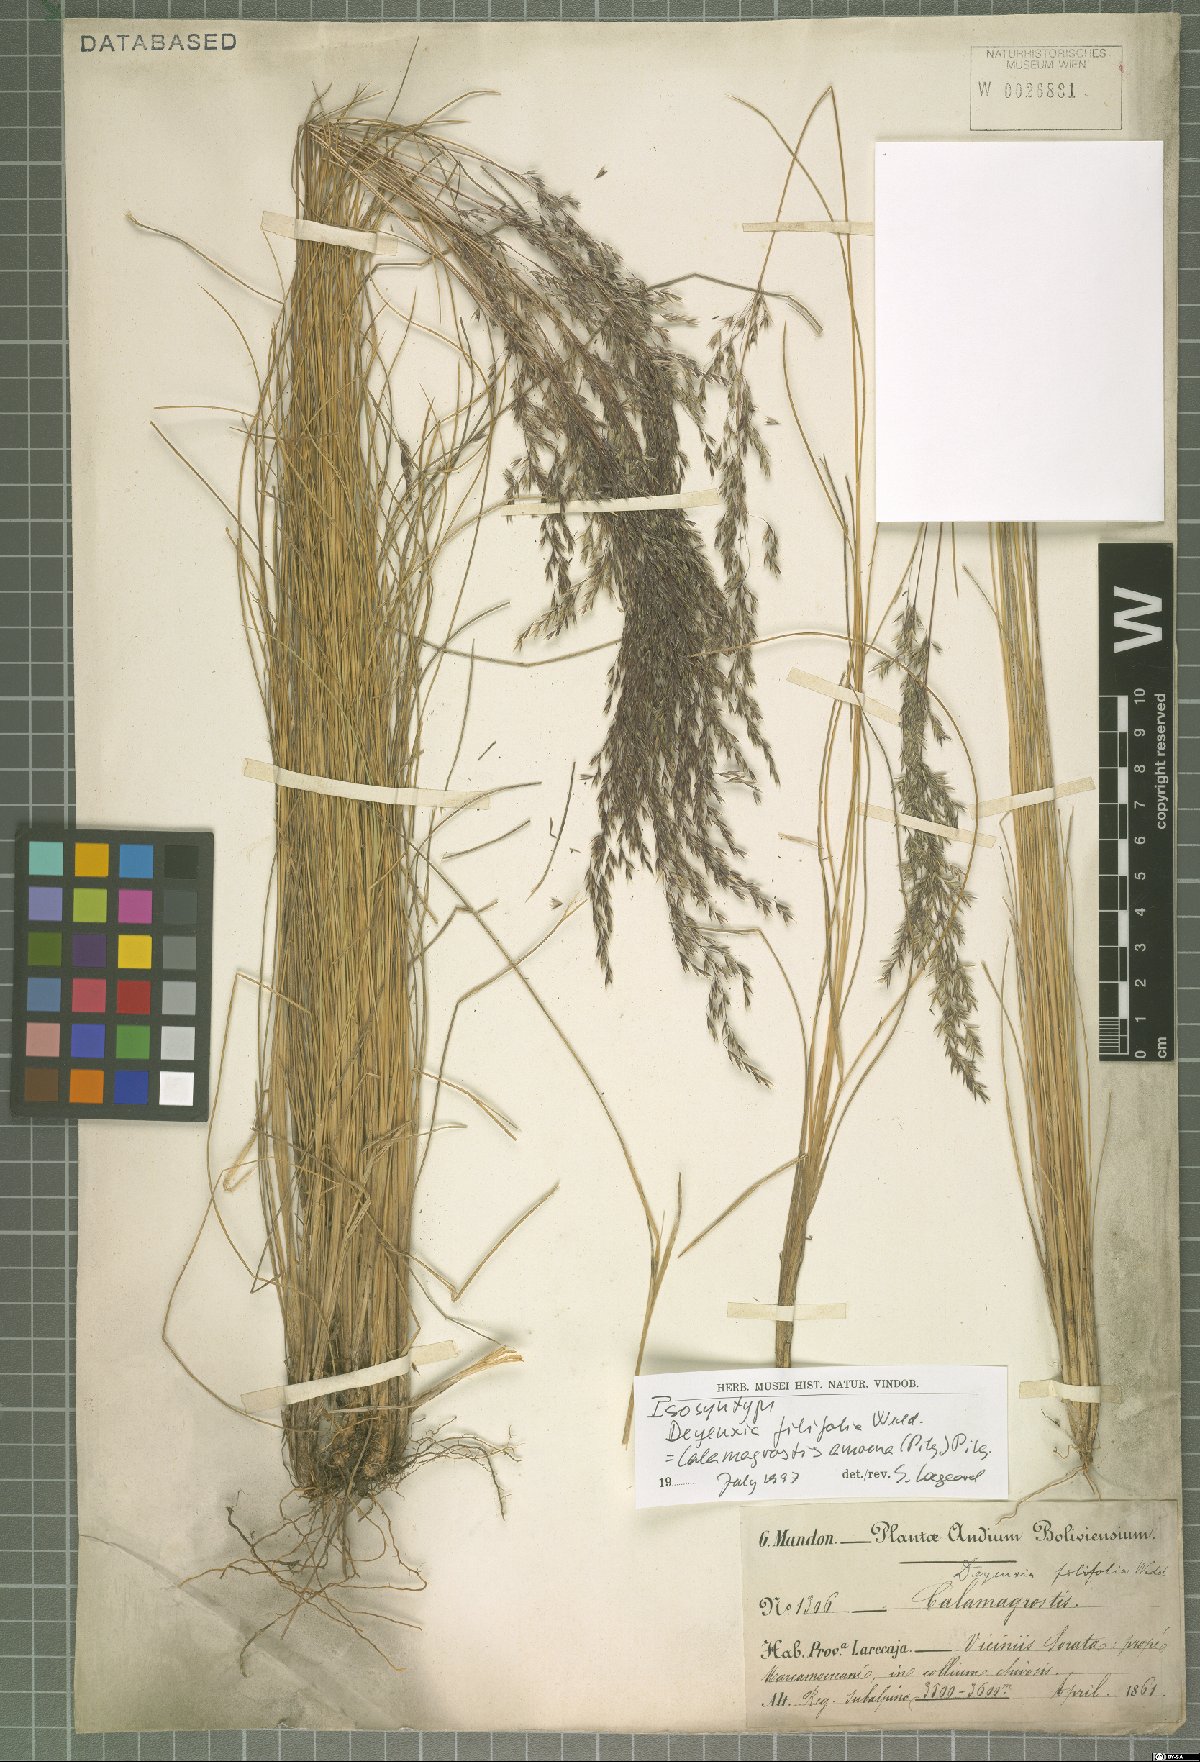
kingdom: Plantae
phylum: Tracheophyta
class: Liliopsida
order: Poales
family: Poaceae
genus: Cinnagrostis
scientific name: Cinnagrostis filifolia
